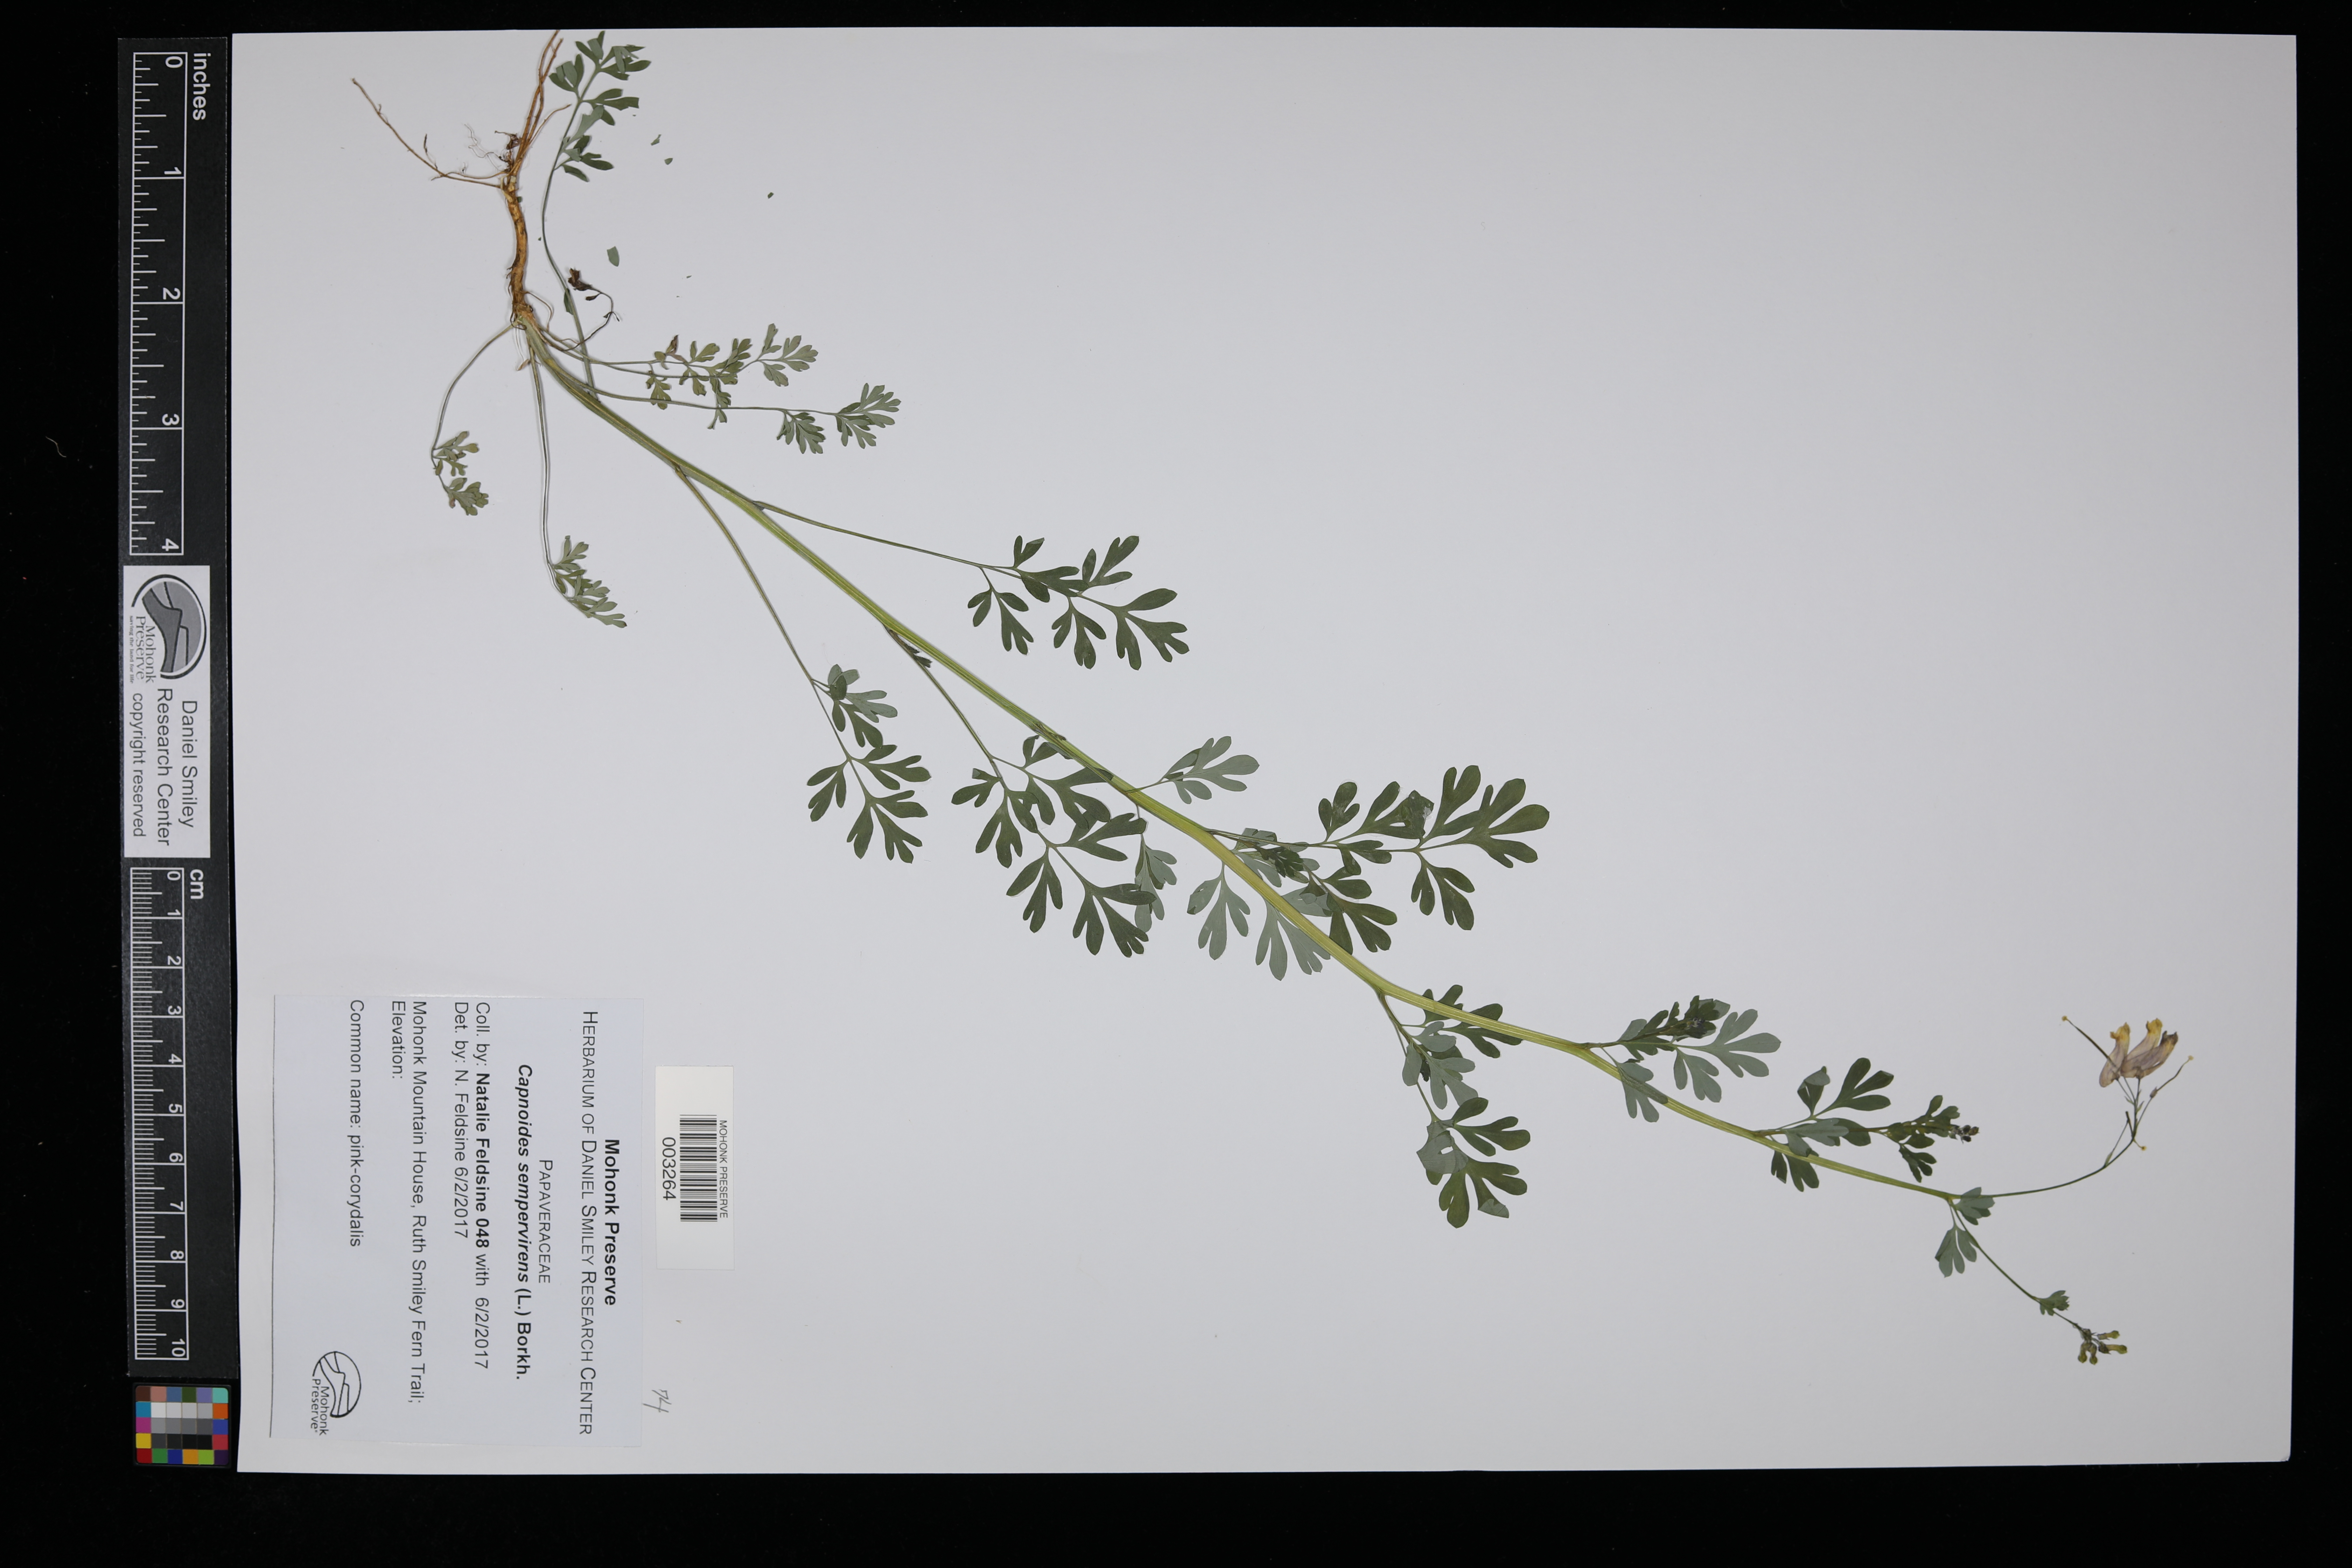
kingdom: Plantae
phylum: Tracheophyta
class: Magnoliopsida
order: Ranunculales
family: Papaveraceae
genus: Capnoides
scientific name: Capnoides sempervirens
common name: Rock harlequin
